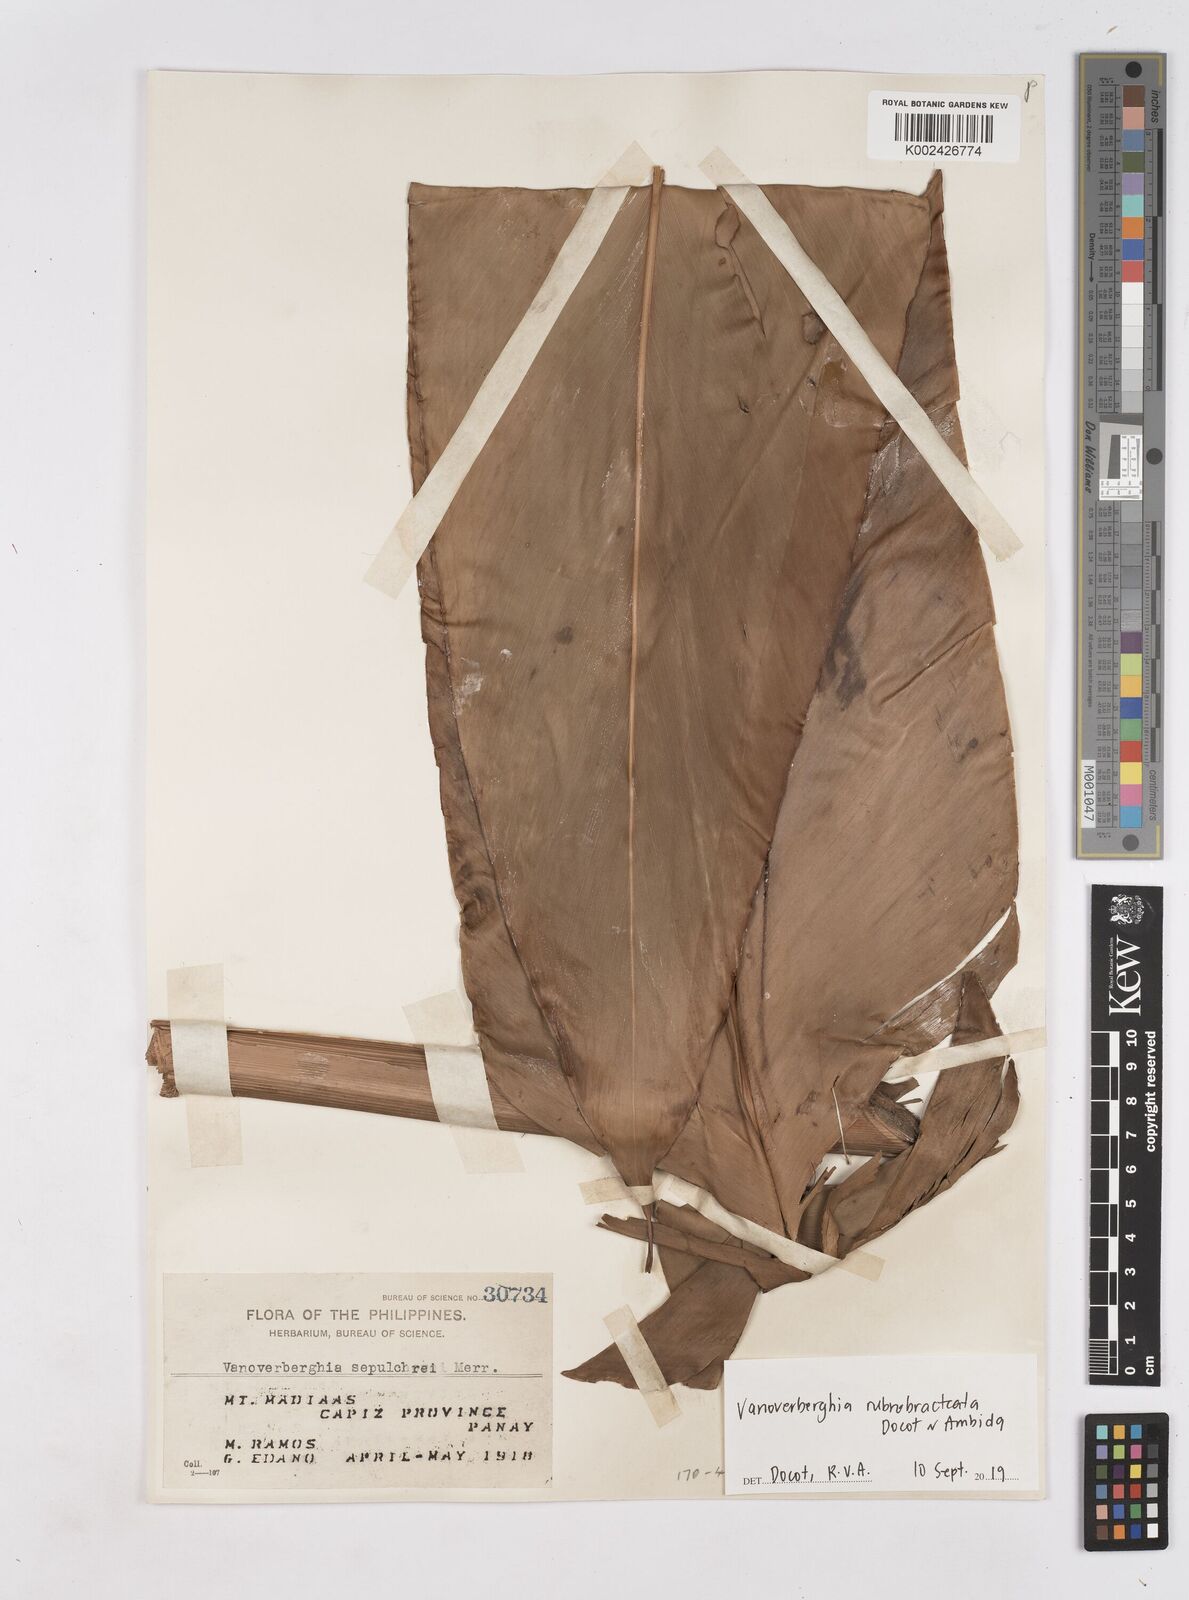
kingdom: Plantae
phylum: Tracheophyta
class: Liliopsida
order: Zingiberales
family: Zingiberaceae
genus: Vanoverberghia
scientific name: Vanoverberghia rubrobracteata
